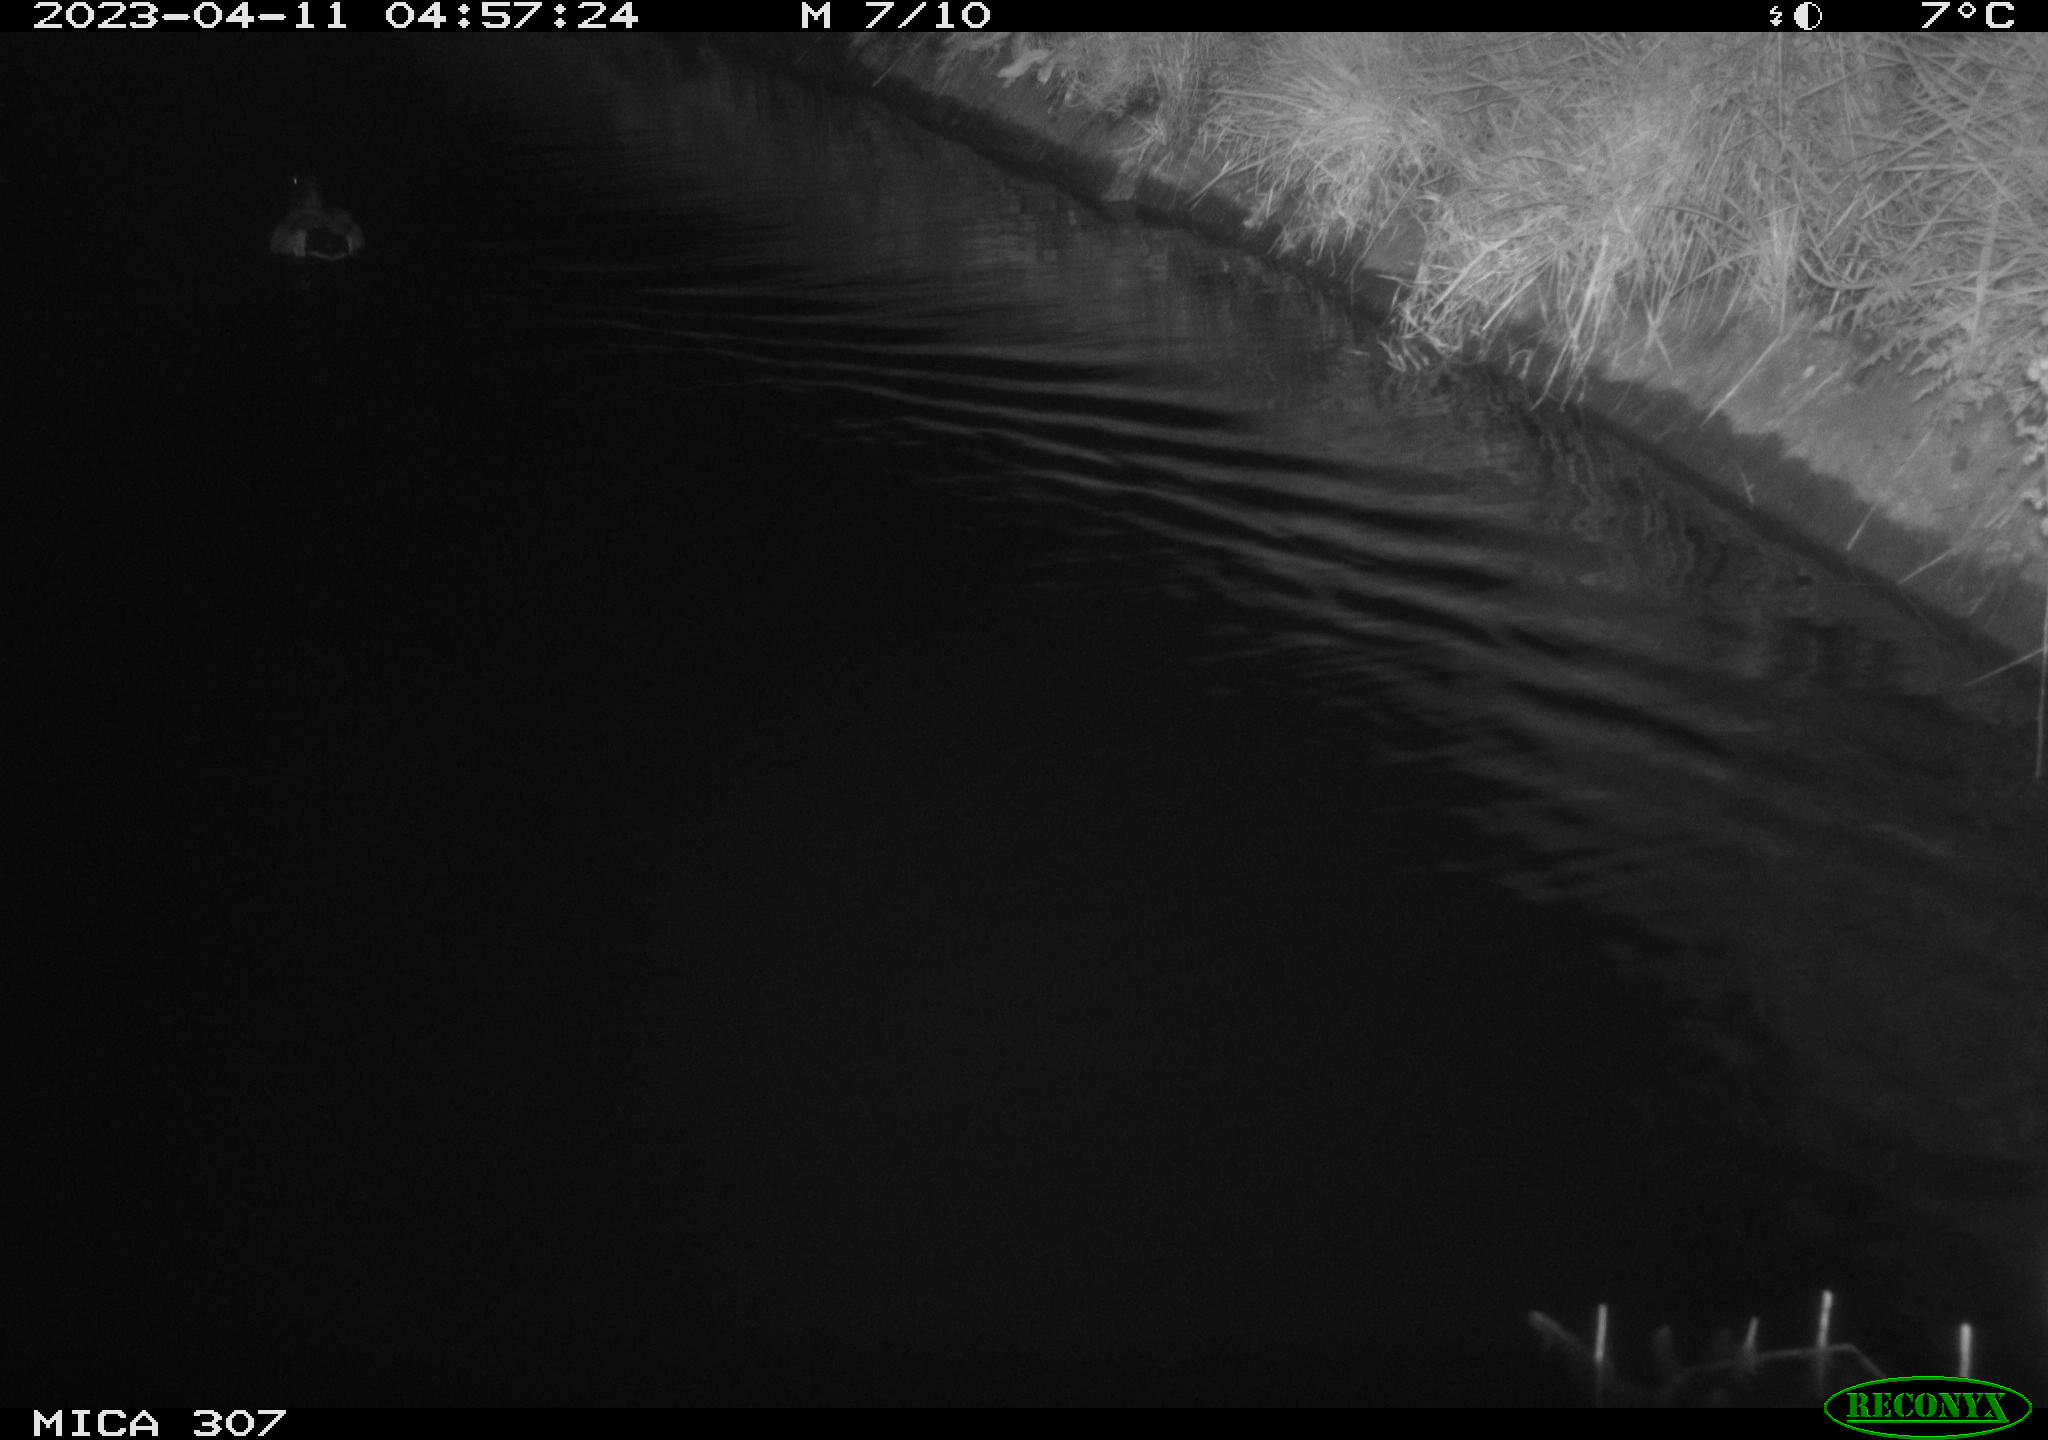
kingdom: Animalia
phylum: Chordata
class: Aves
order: Anseriformes
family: Anatidae
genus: Anas
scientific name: Anas
